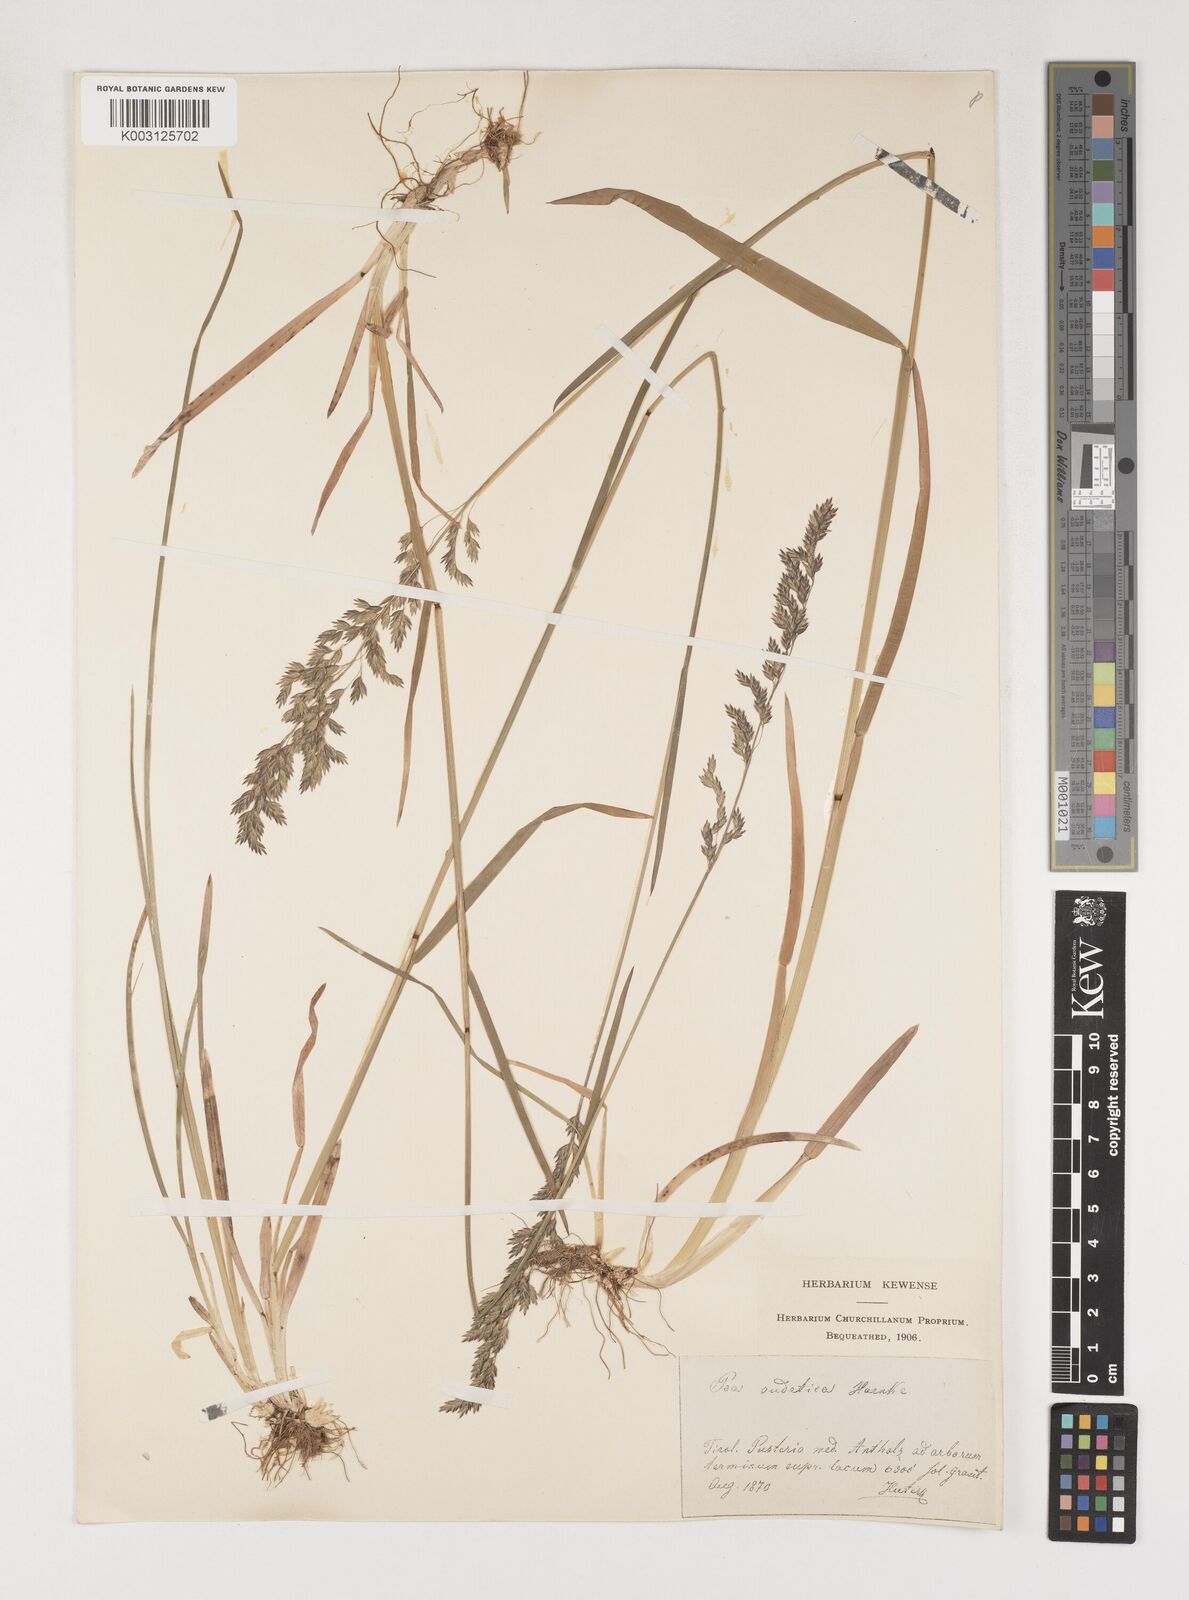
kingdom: Plantae
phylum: Tracheophyta
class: Liliopsida
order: Poales
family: Poaceae
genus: Poa
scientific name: Poa chaixii
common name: Broad-leaved meadow-grass
